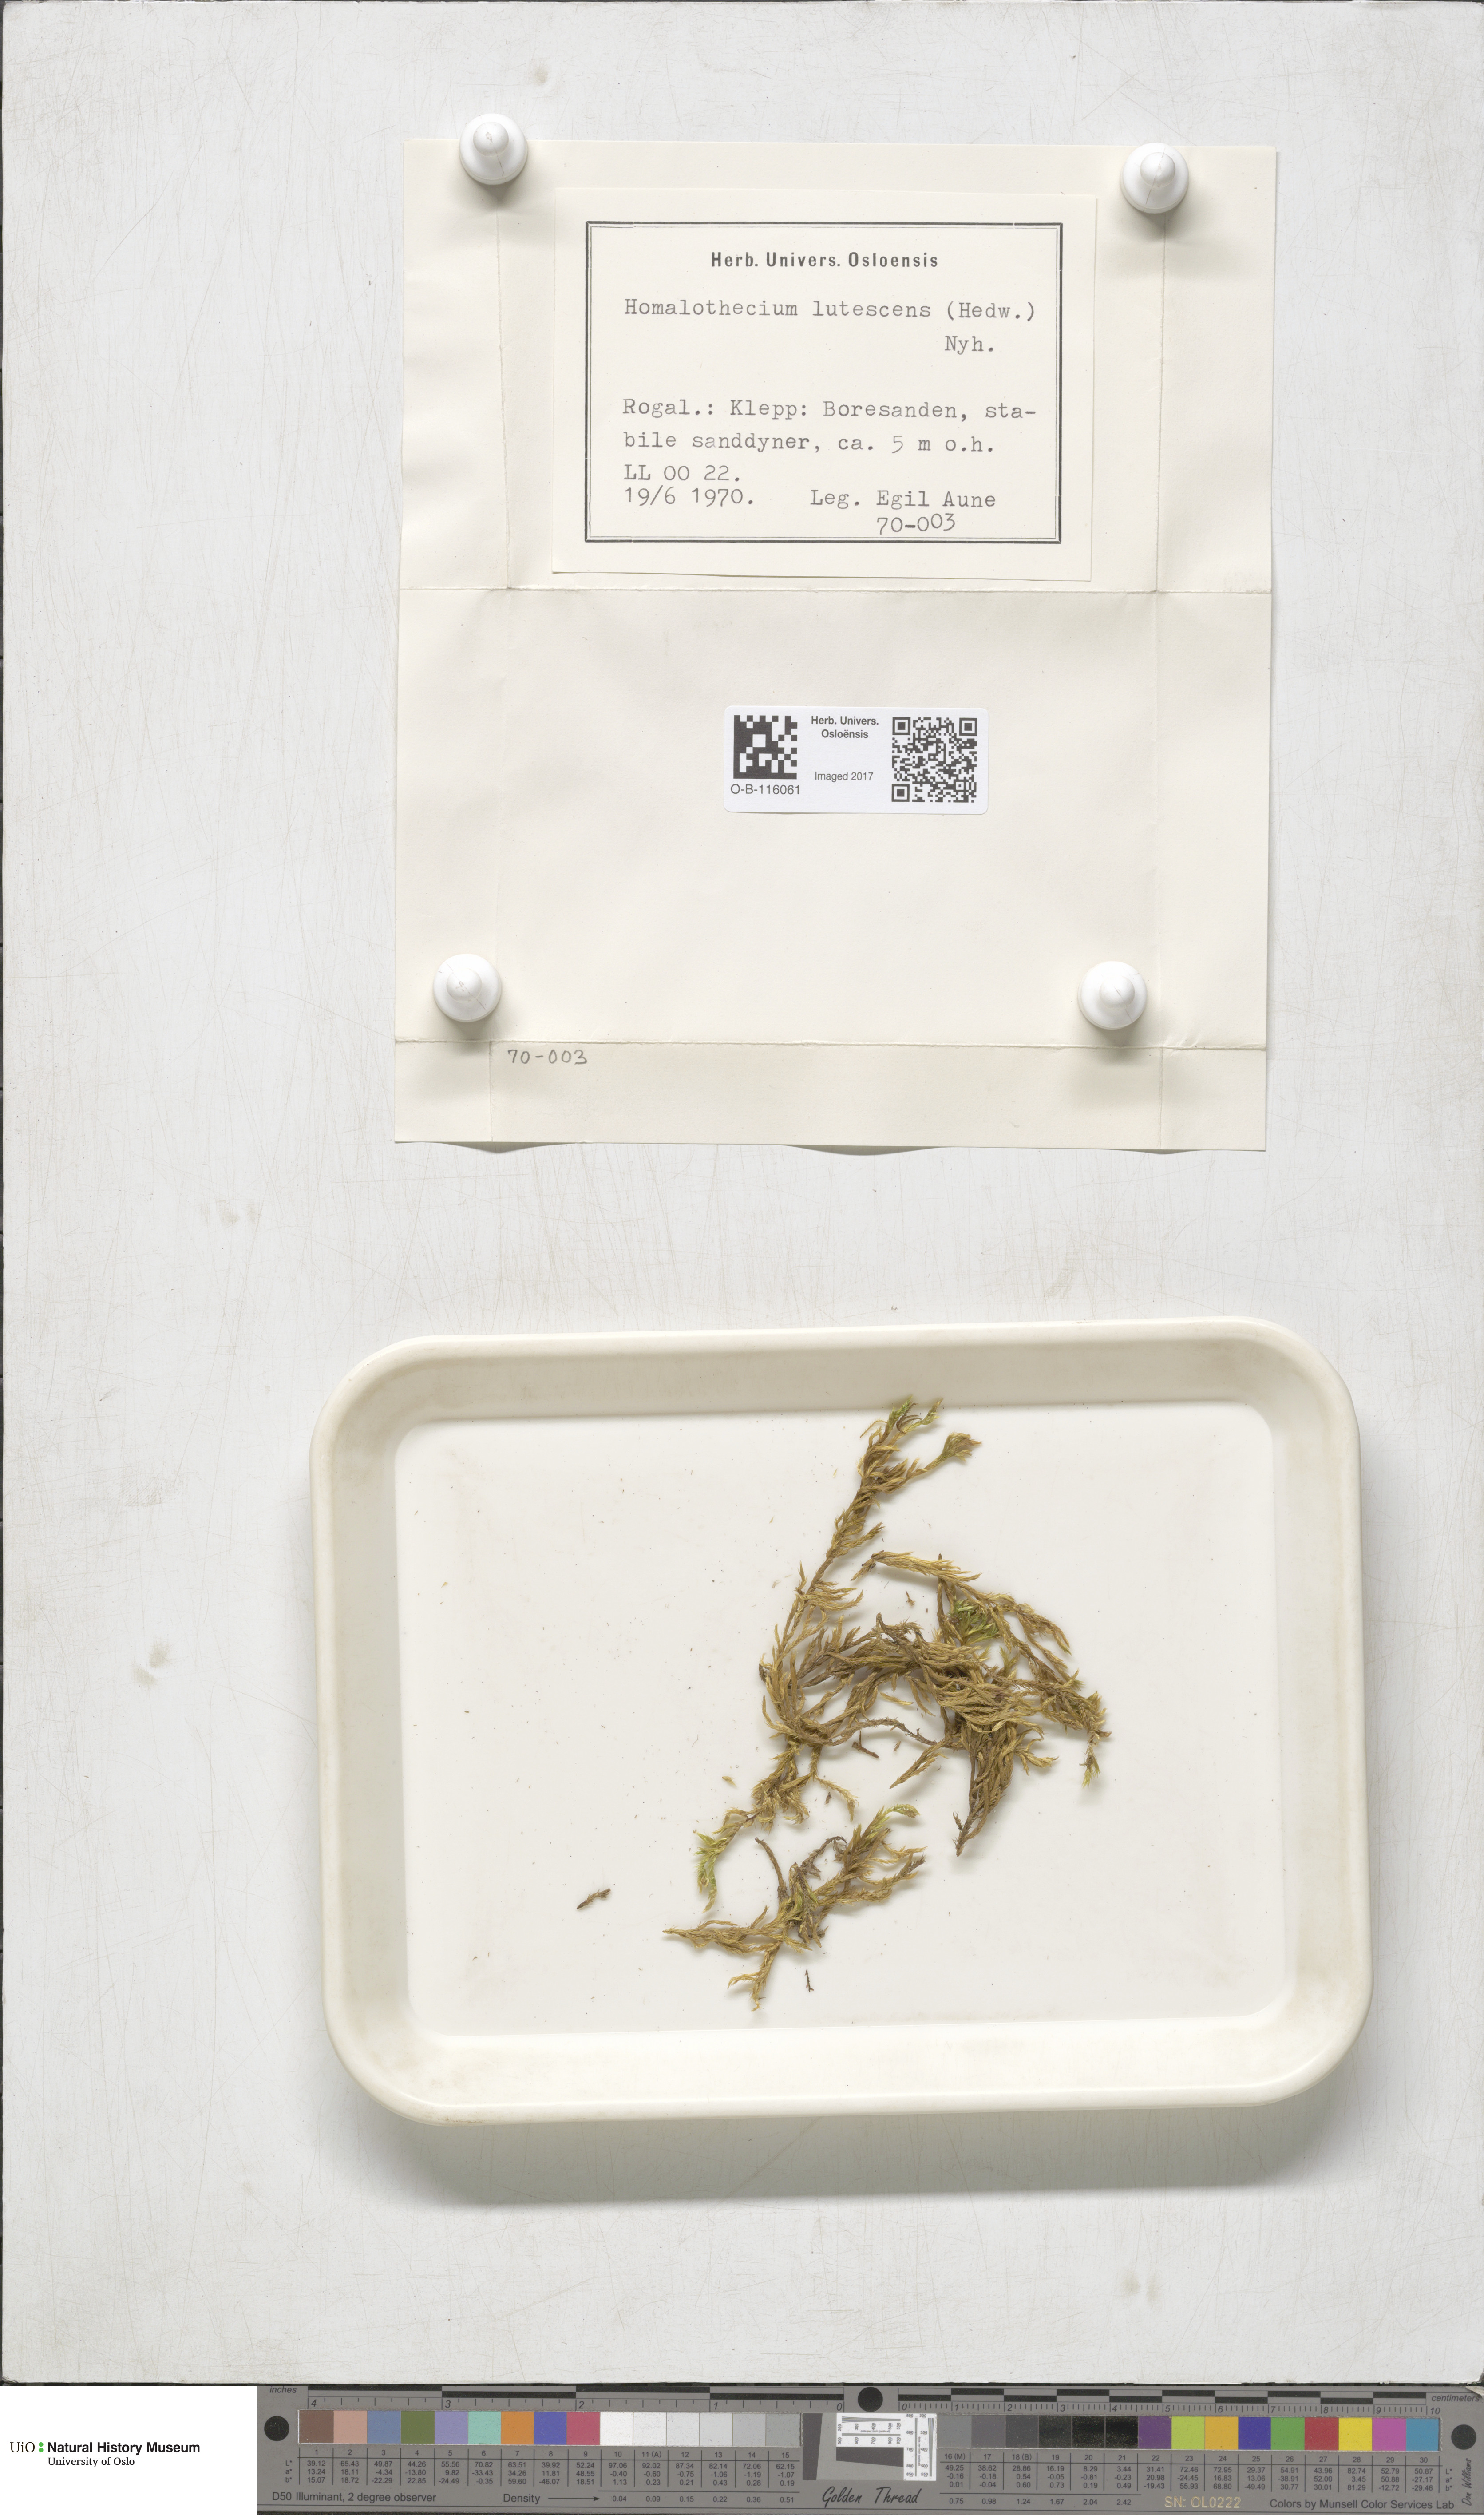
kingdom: Plantae
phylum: Bryophyta
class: Bryopsida
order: Hypnales
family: Brachytheciaceae
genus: Homalothecium
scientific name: Homalothecium lutescens
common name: Yellow feather-moss
